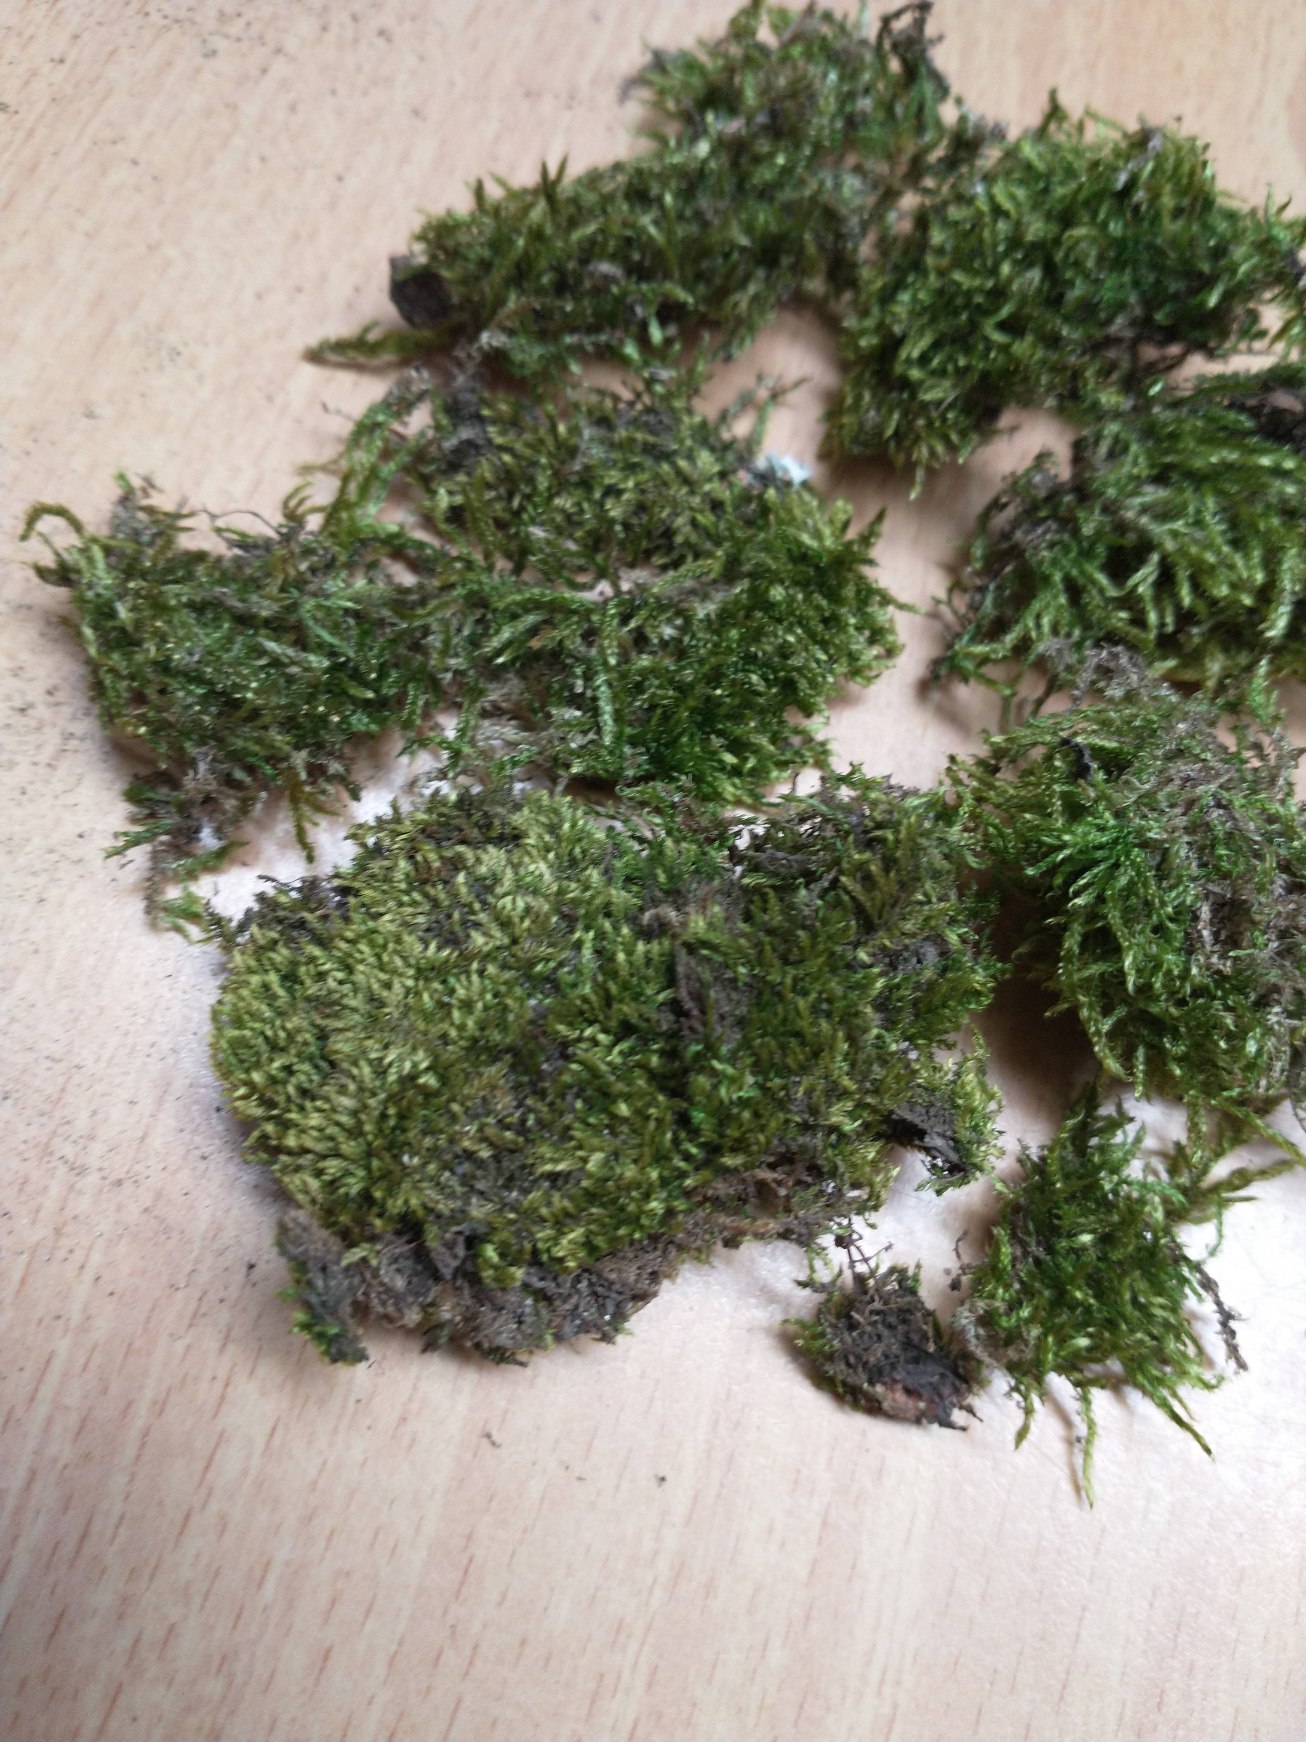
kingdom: Plantae
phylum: Bryophyta
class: Bryopsida
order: Hypnales
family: Hypnaceae
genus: Hypnum
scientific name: Hypnum
